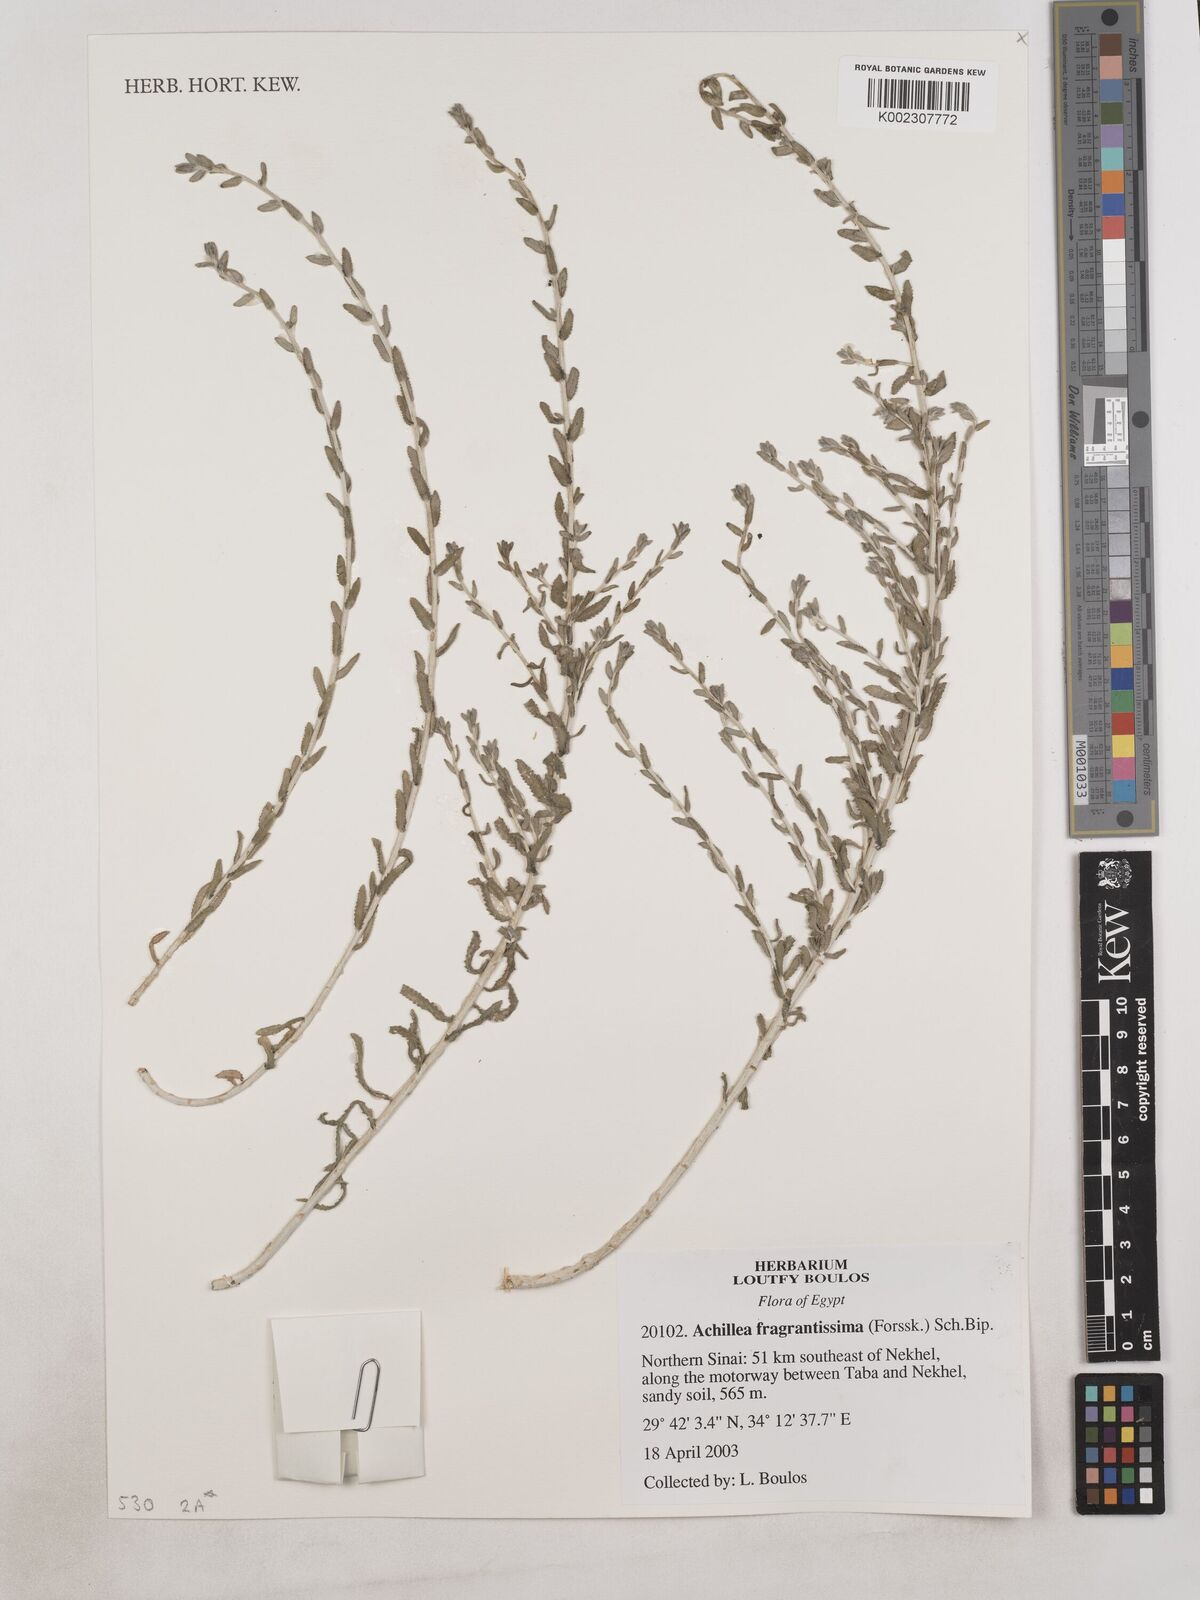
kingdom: Plantae
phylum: Tracheophyta
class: Magnoliopsida
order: Asterales
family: Asteraceae
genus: Achillea
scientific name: Achillea fragrantissima
